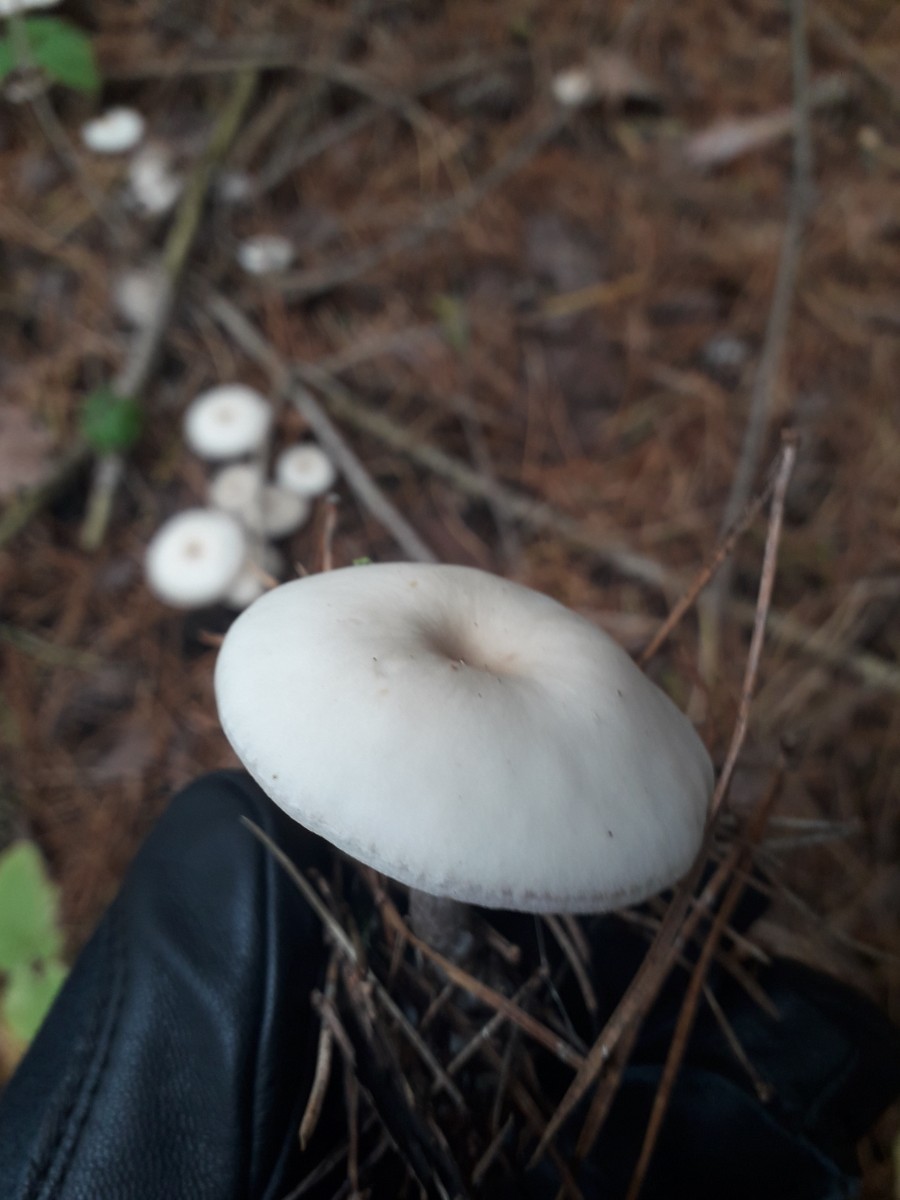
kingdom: Fungi
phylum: Basidiomycota
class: Agaricomycetes
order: Agaricales
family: Tricholomataceae
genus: Clitocybe
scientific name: Clitocybe
